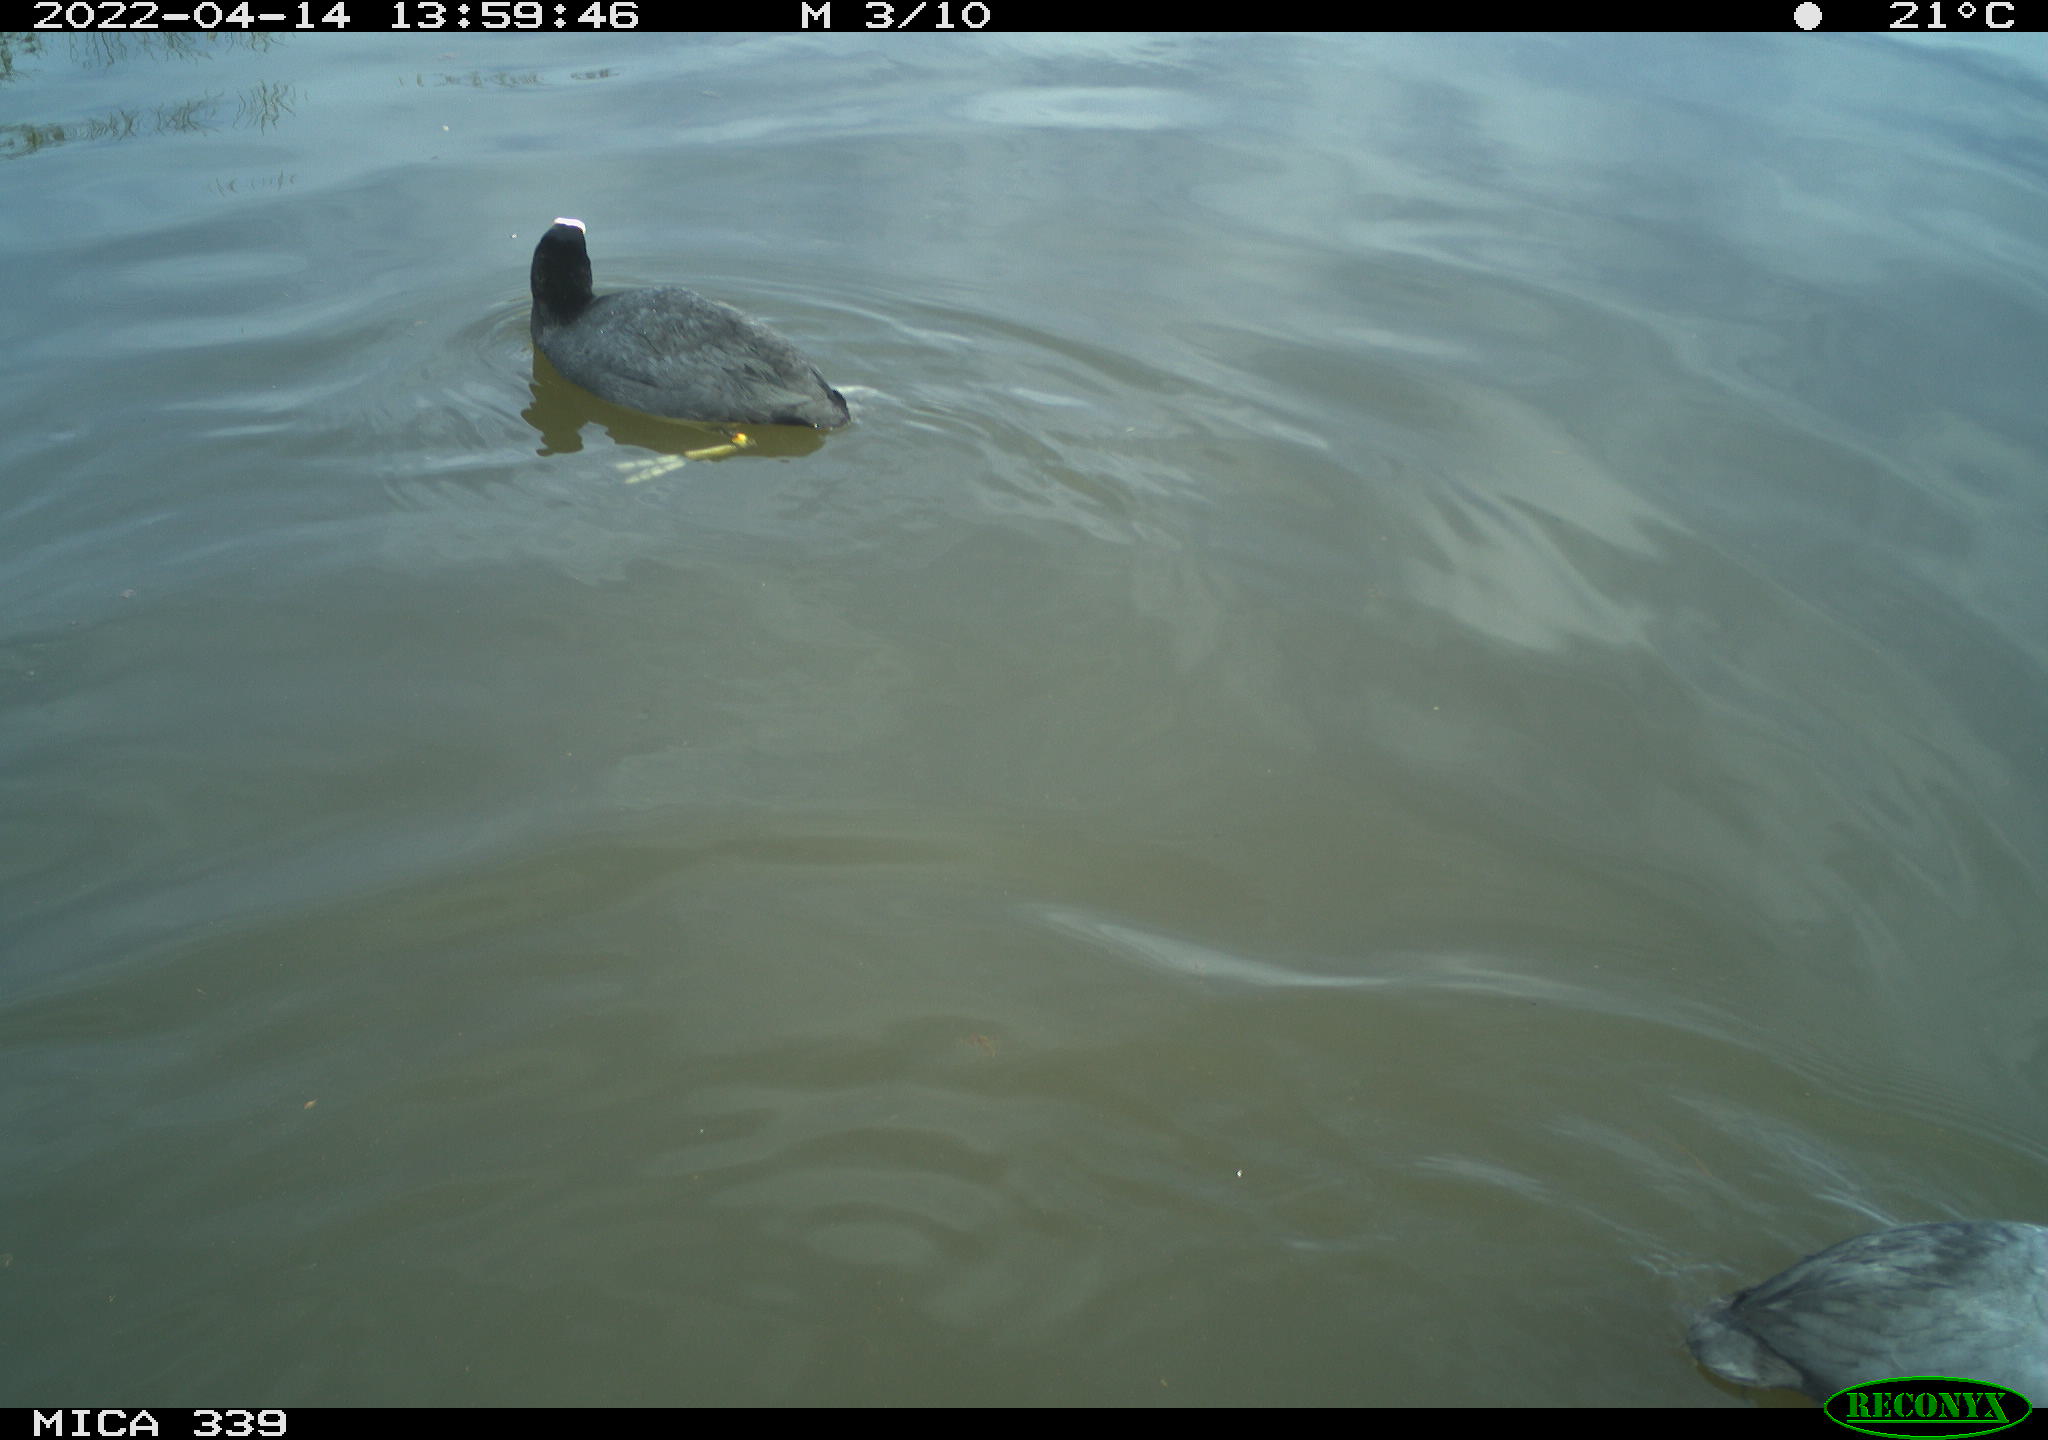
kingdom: Animalia
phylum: Chordata
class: Aves
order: Gruiformes
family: Rallidae
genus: Fulica
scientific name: Fulica atra
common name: Eurasian coot
